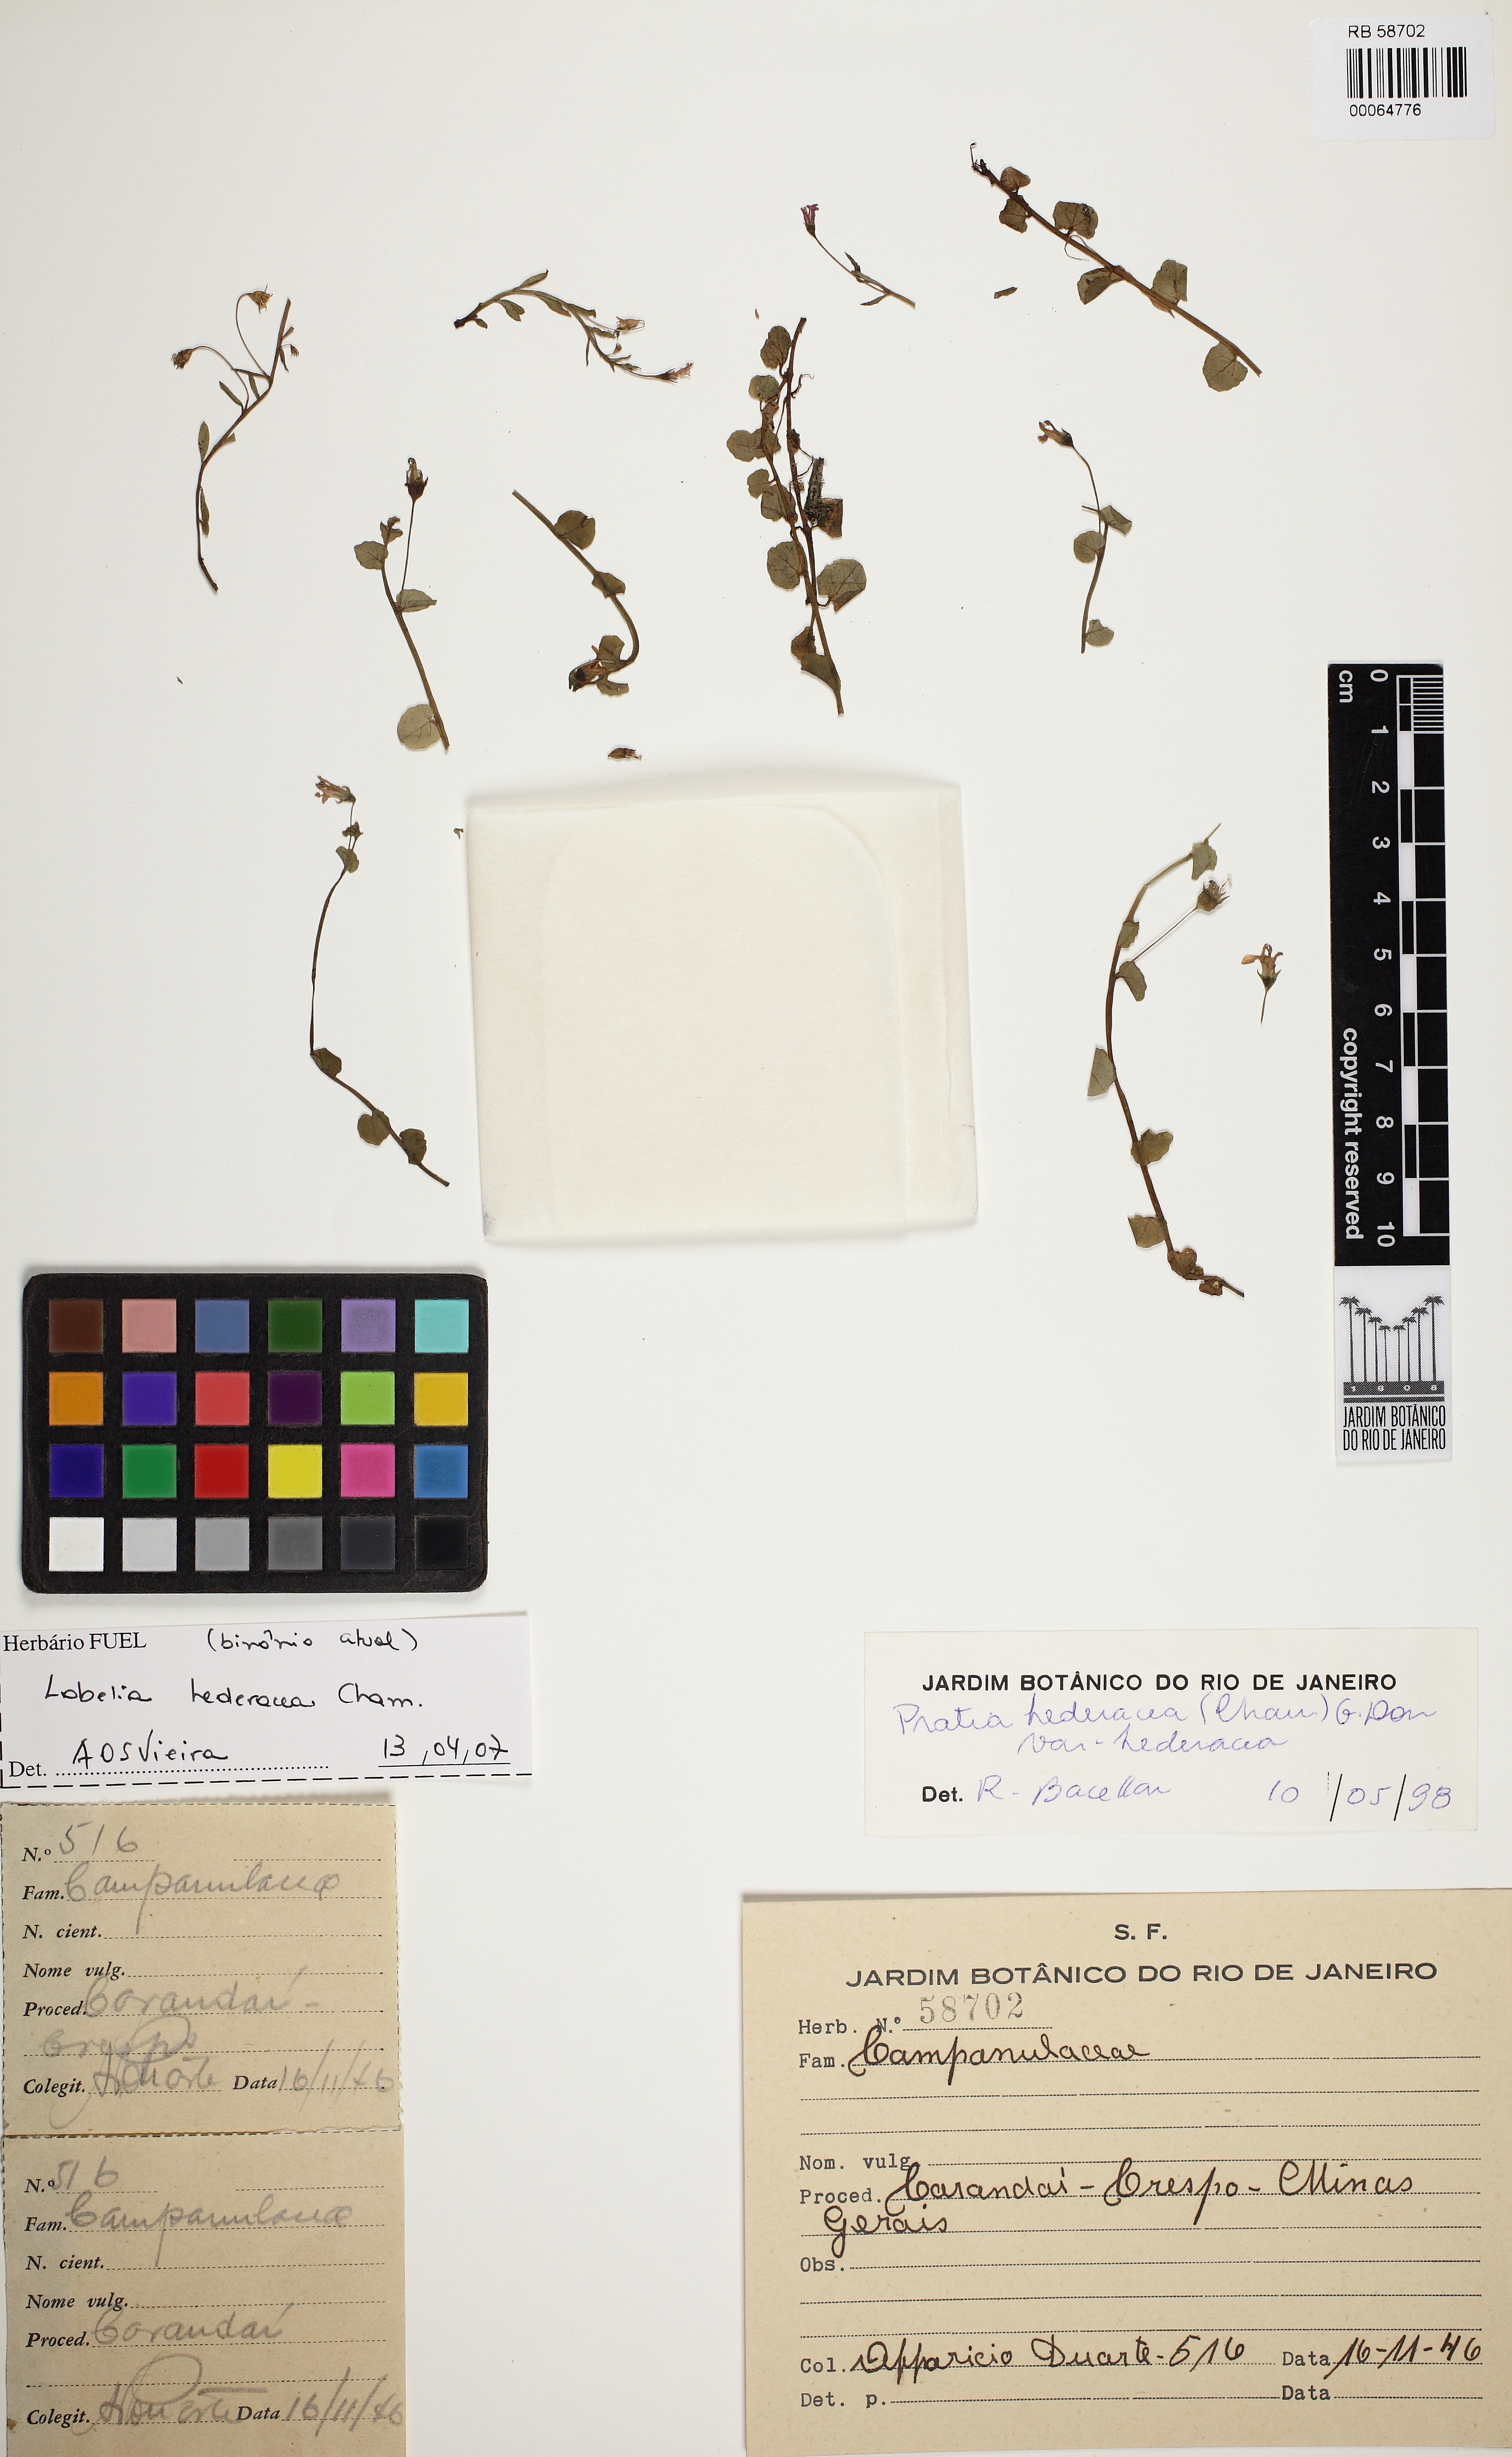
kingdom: Plantae
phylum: Tracheophyta
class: Magnoliopsida
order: Asterales
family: Campanulaceae
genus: Lobelia
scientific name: Lobelia hederacea
